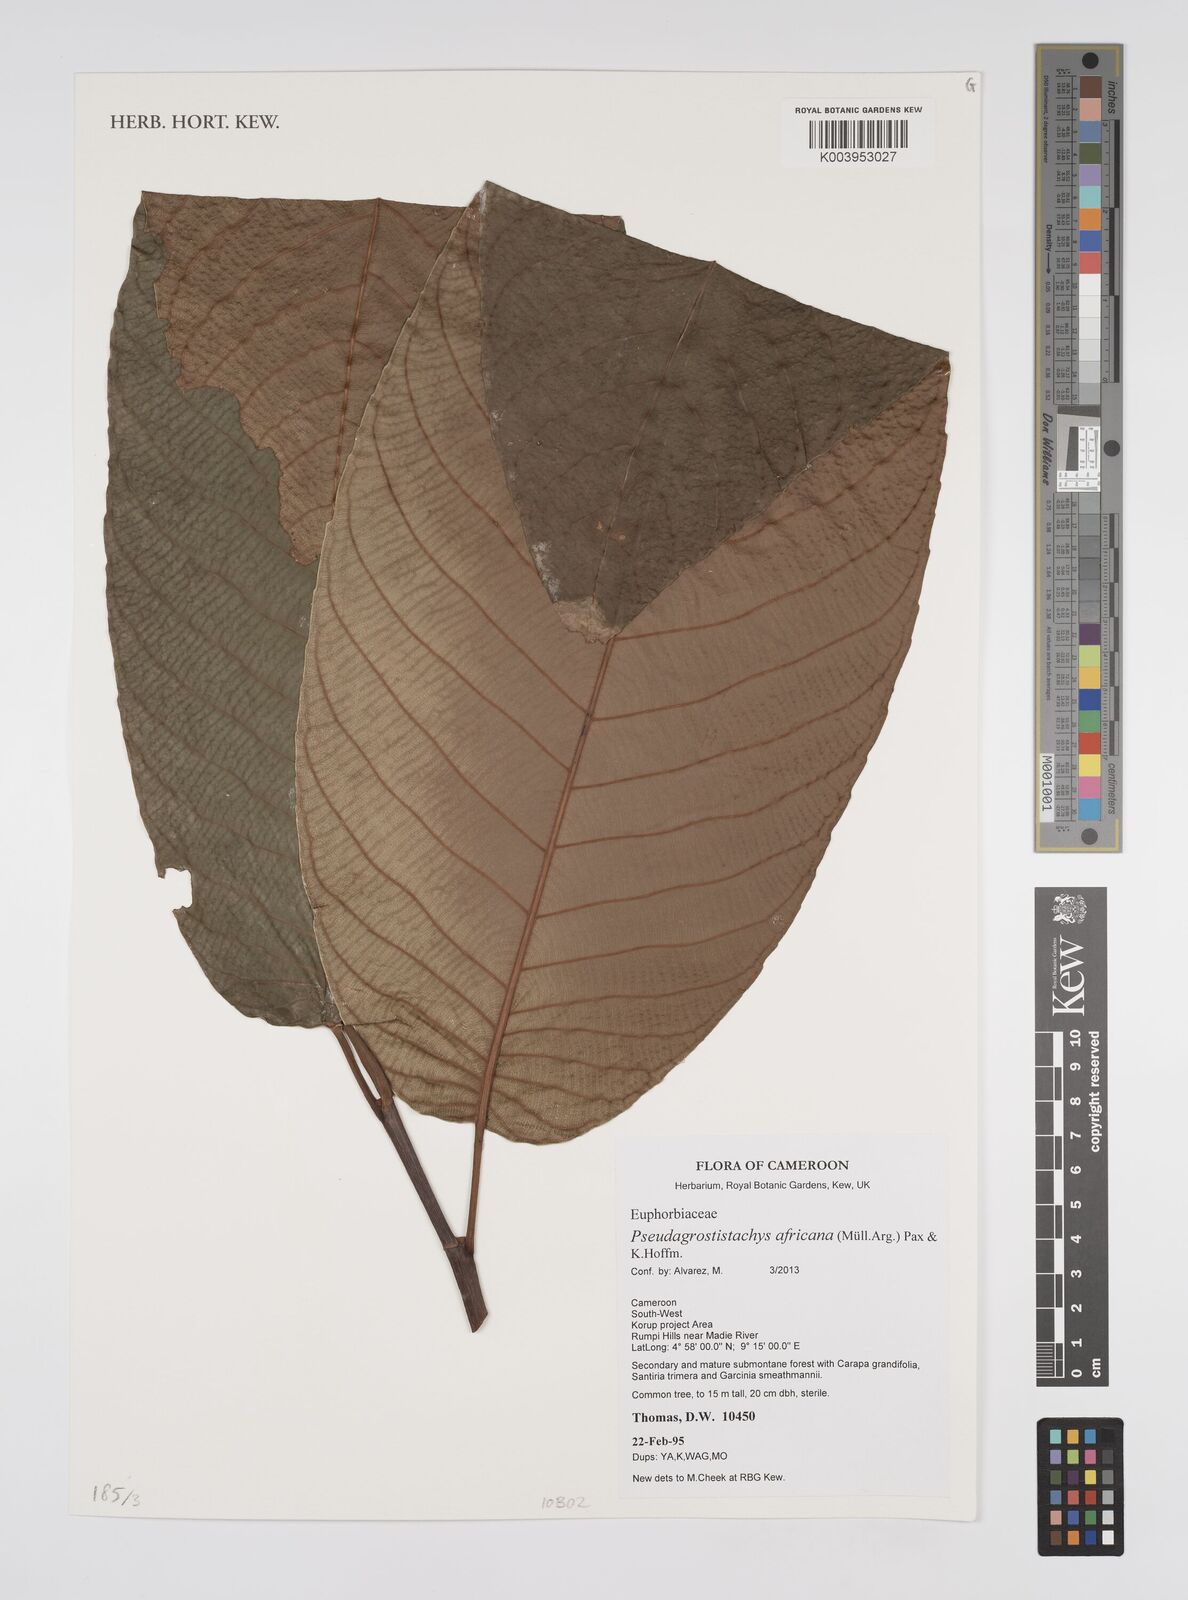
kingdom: Plantae
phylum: Tracheophyta
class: Magnoliopsida
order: Malpighiales
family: Euphorbiaceae
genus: Pseudagrostistachys
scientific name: Pseudagrostistachys africana
